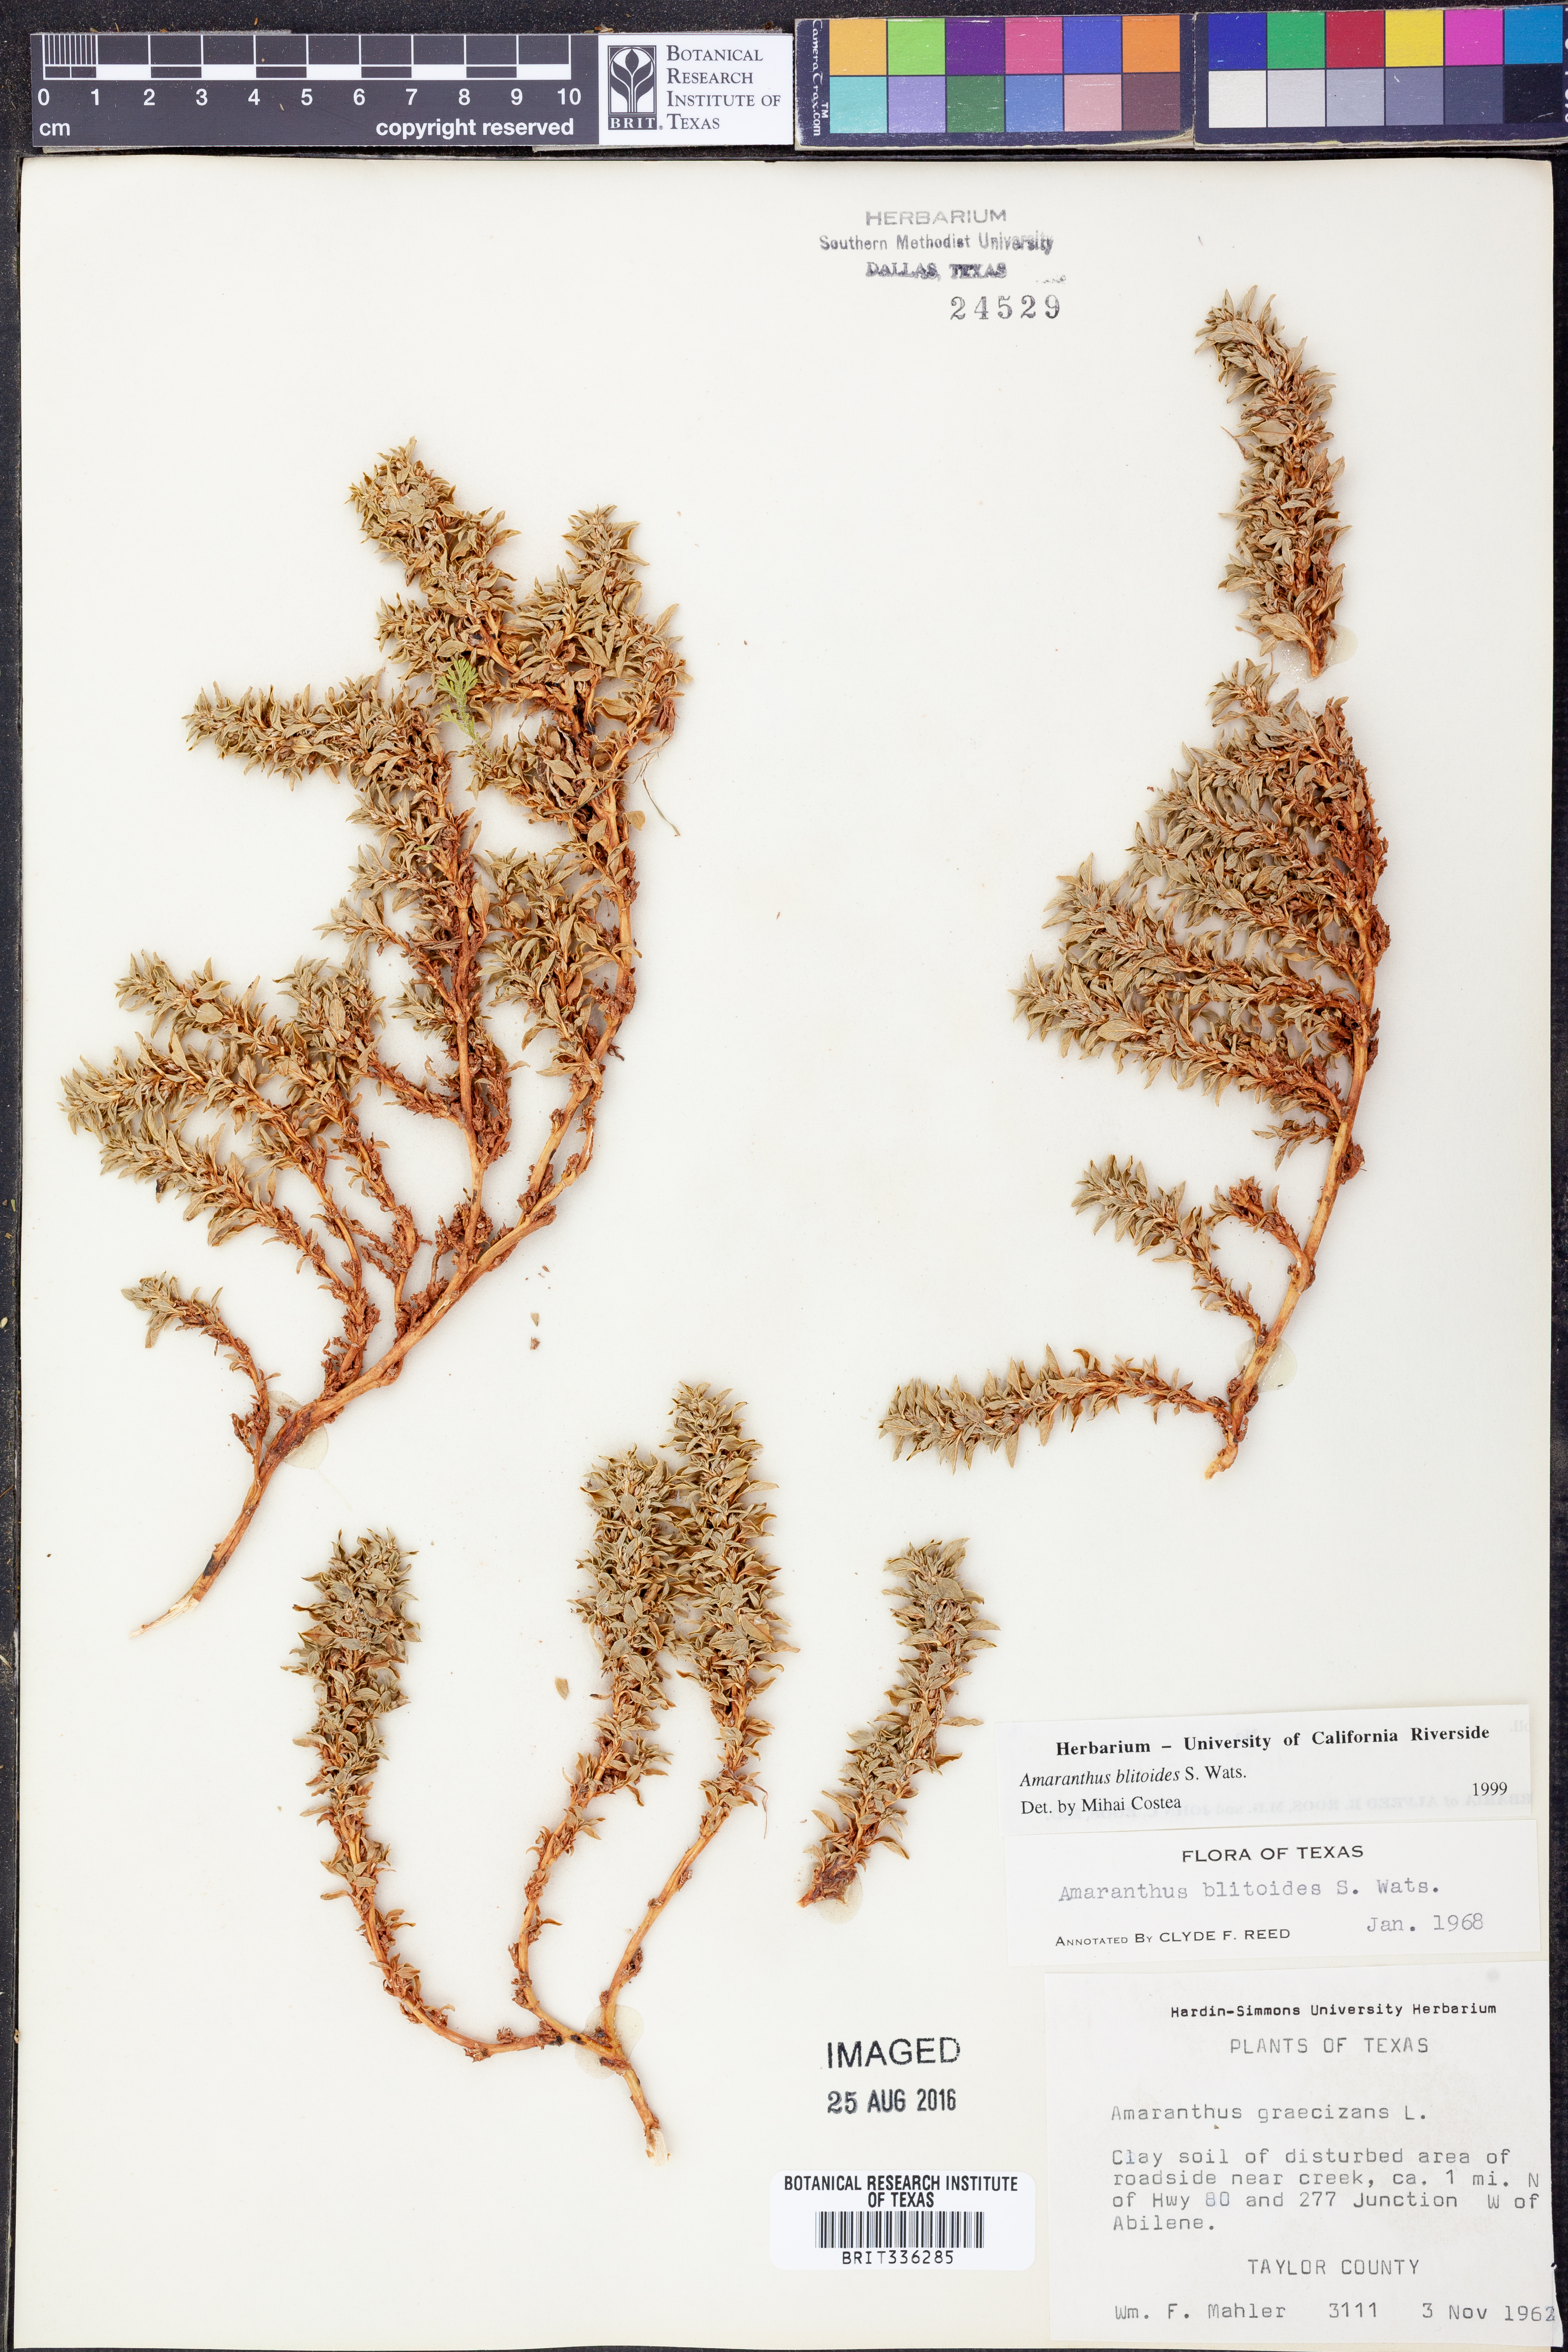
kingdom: Plantae
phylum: Tracheophyta
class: Magnoliopsida
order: Caryophyllales
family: Amaranthaceae
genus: Amaranthus
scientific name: Amaranthus blitoides
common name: Prostrate pigweed
